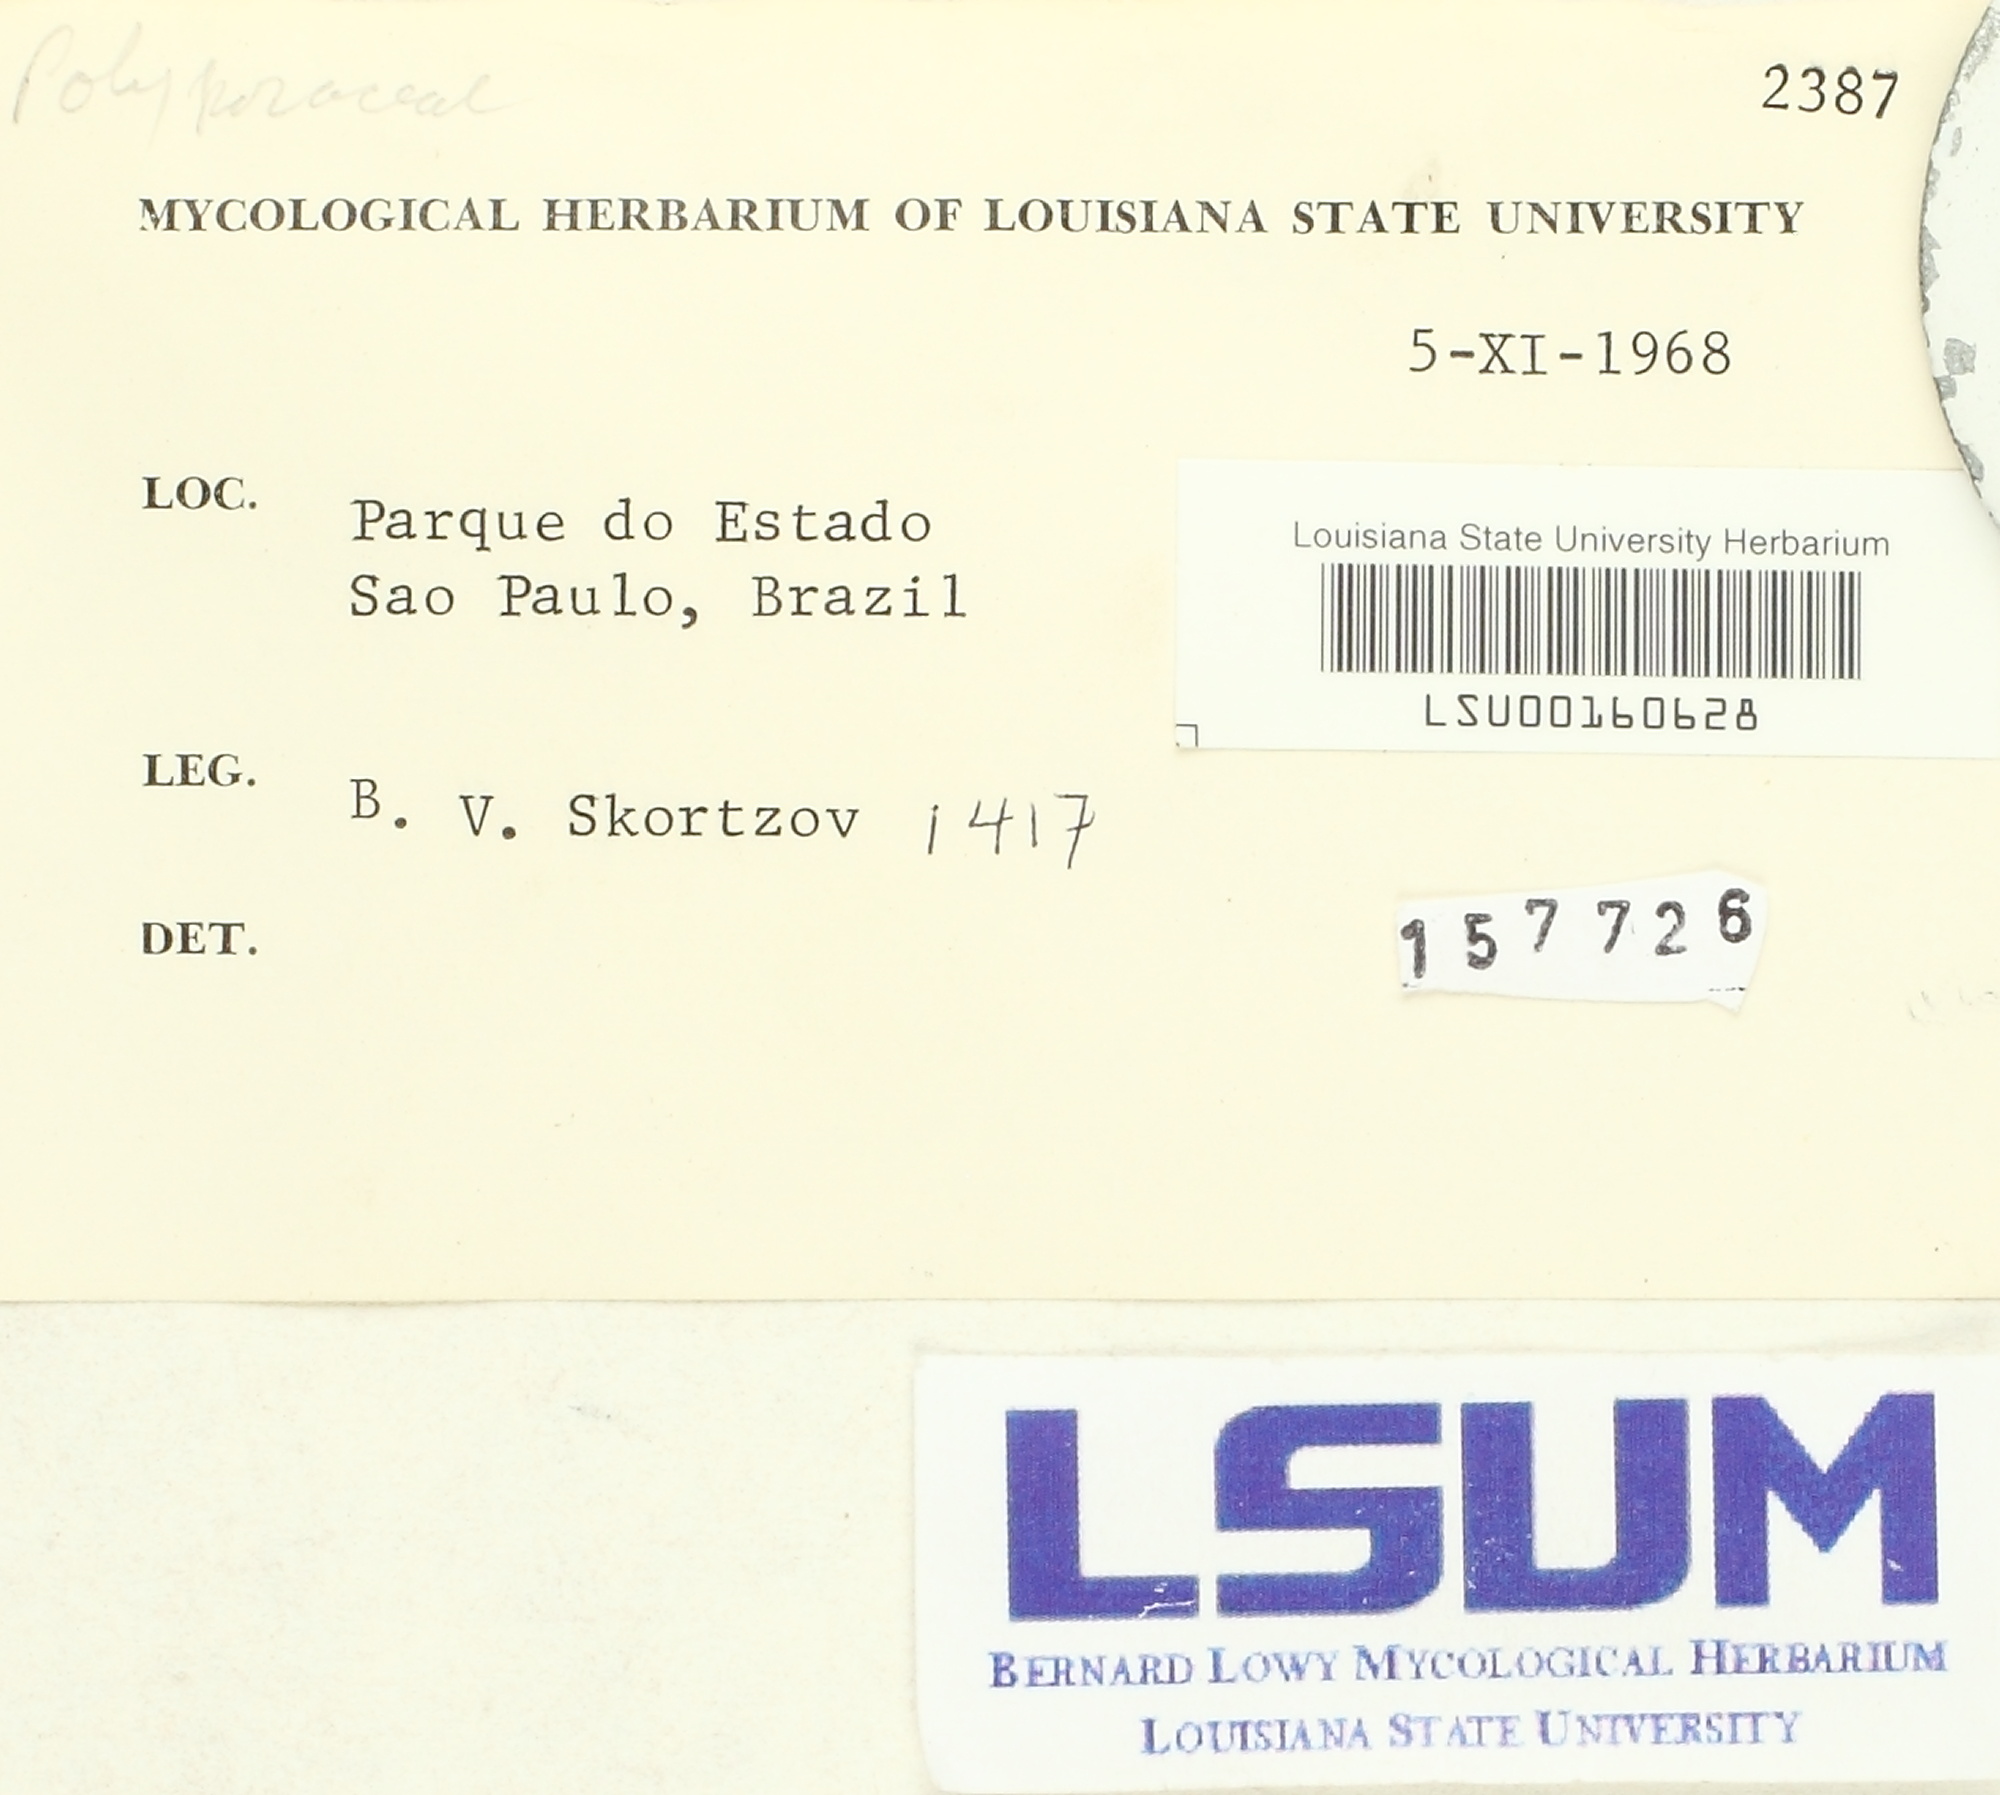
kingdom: Fungi
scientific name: Fungi
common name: Fungi
